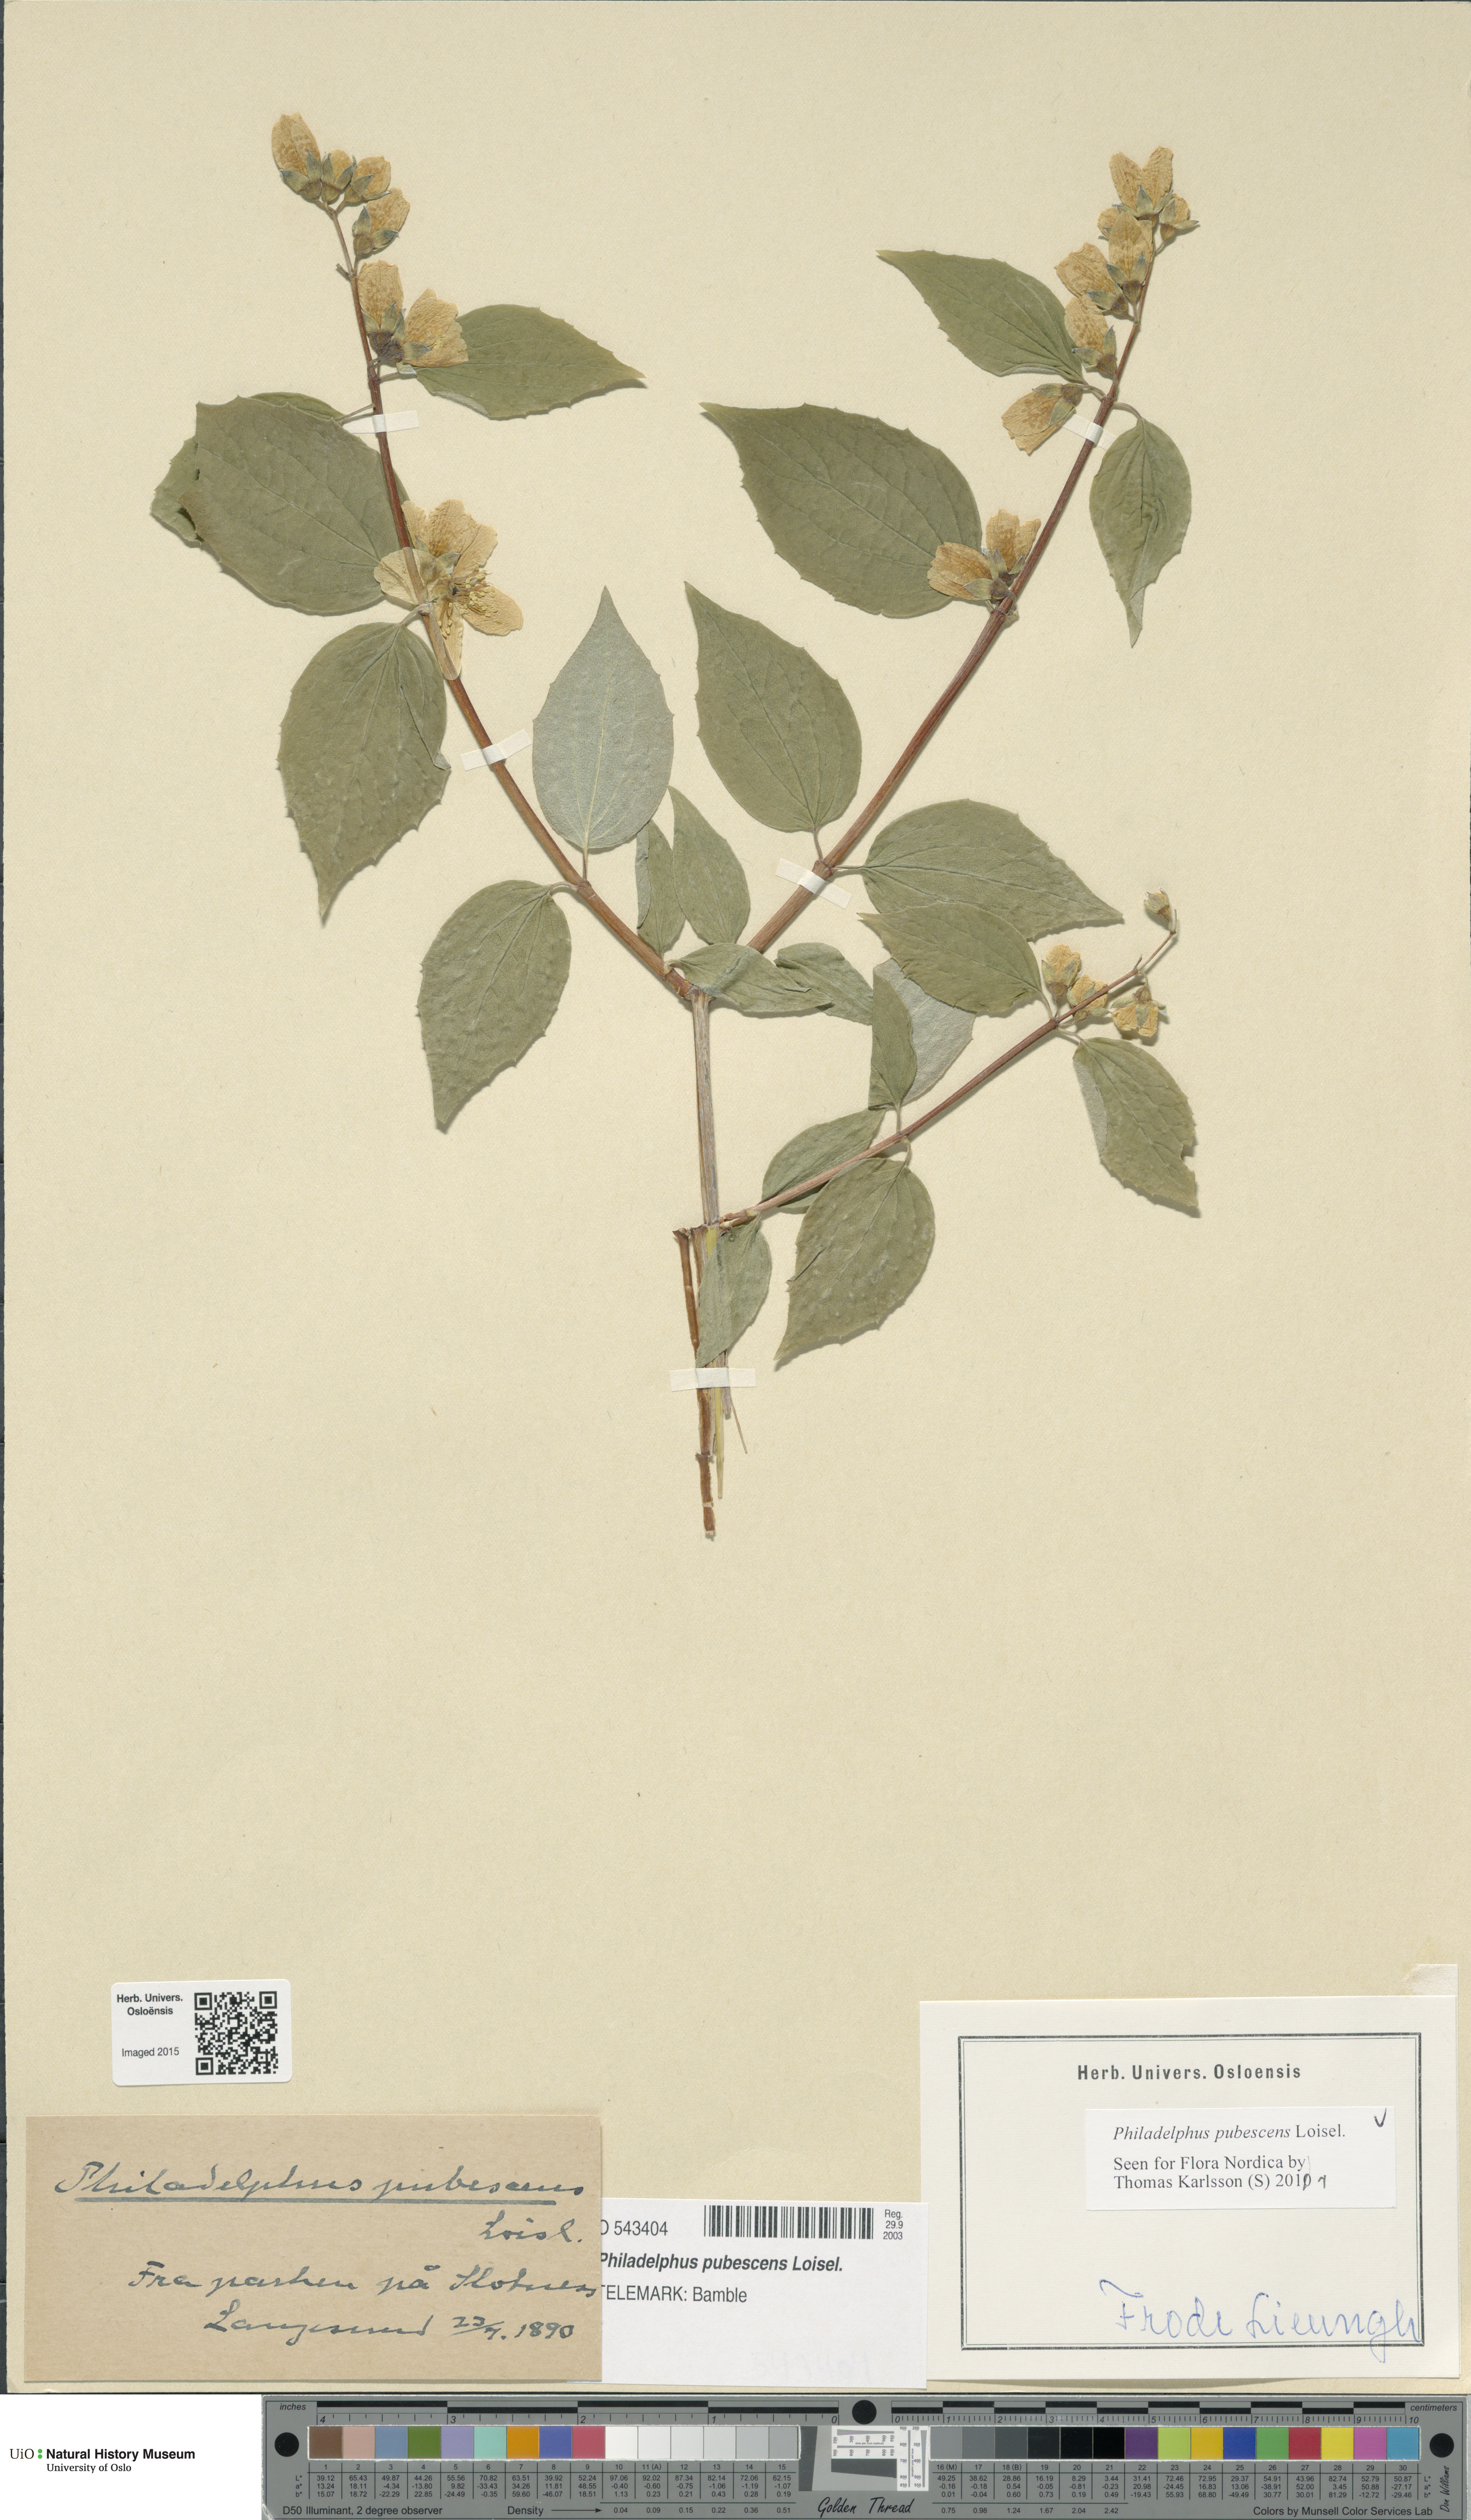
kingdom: Plantae
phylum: Tracheophyta
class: Magnoliopsida
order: Cornales
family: Hydrangeaceae
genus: Philadelphus
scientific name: Philadelphus pubescens
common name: Broadleaf mock orange
